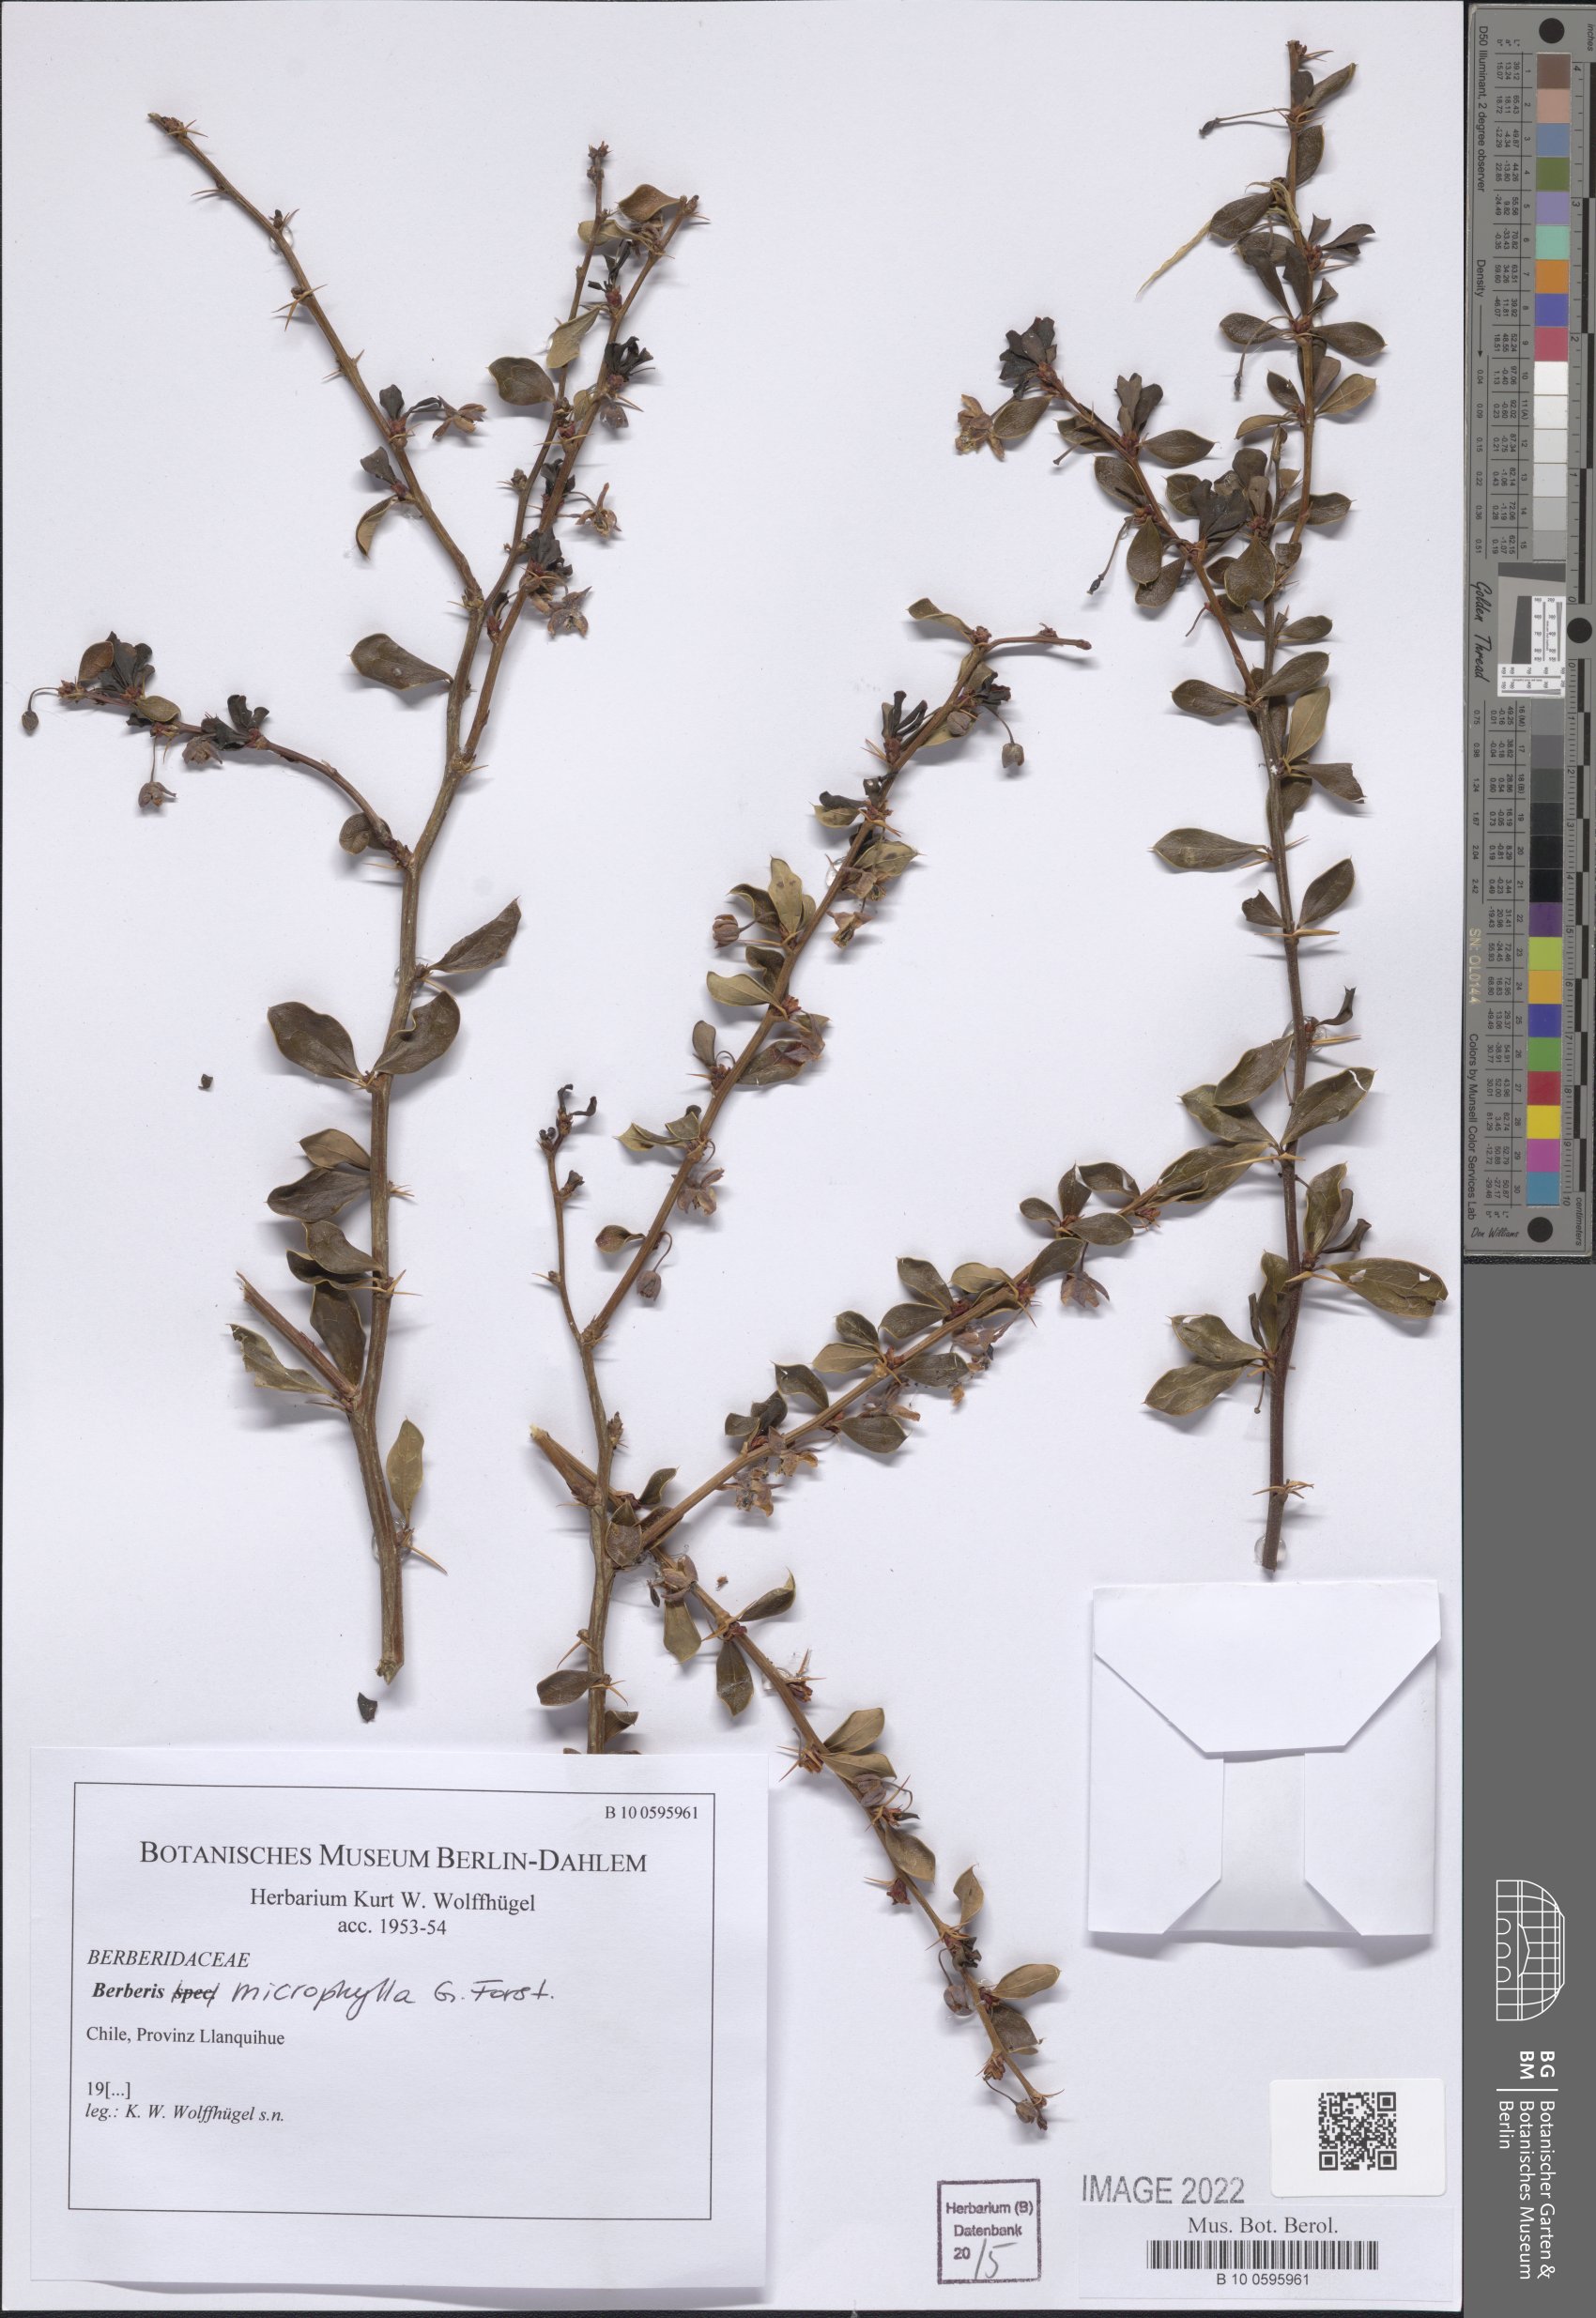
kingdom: Plantae
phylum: Tracheophyta
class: Magnoliopsida
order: Ranunculales
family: Berberidaceae
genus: Berberis
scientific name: Berberis microphylla
